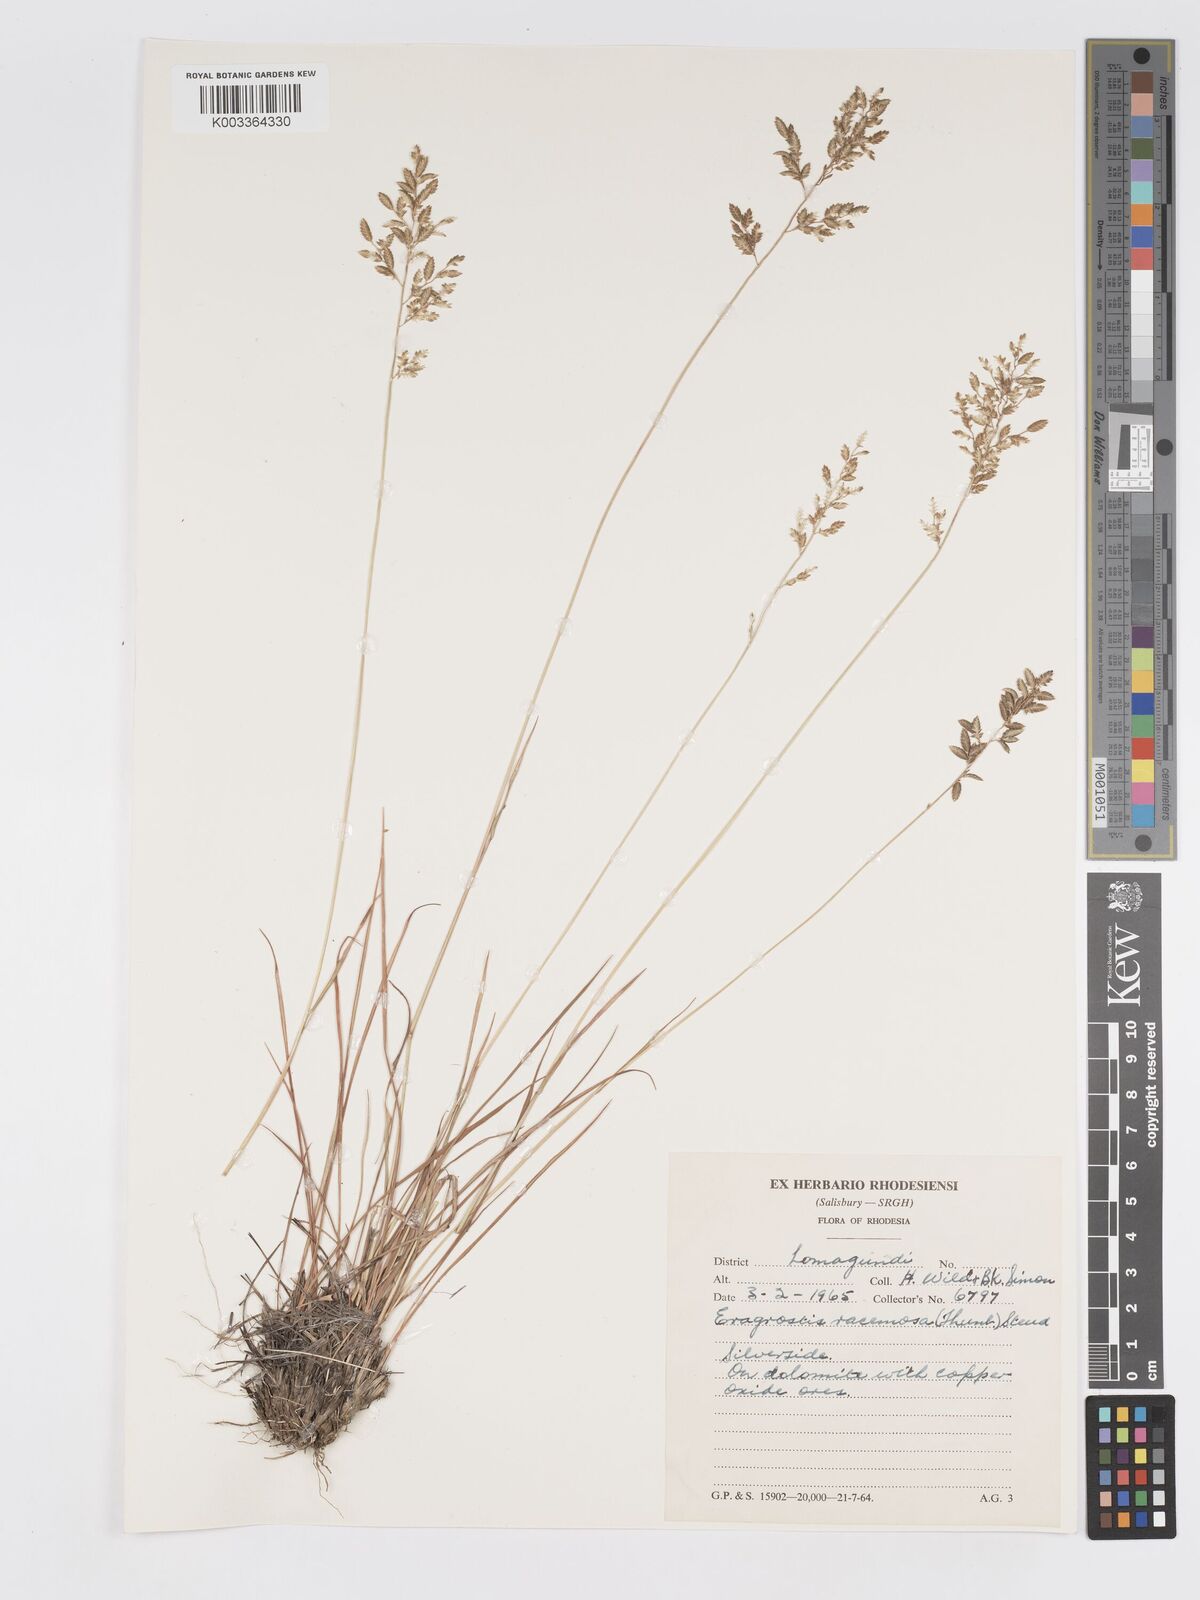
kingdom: Plantae
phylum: Tracheophyta
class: Liliopsida
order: Poales
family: Poaceae
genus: Eragrostis
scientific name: Eragrostis racemosa
